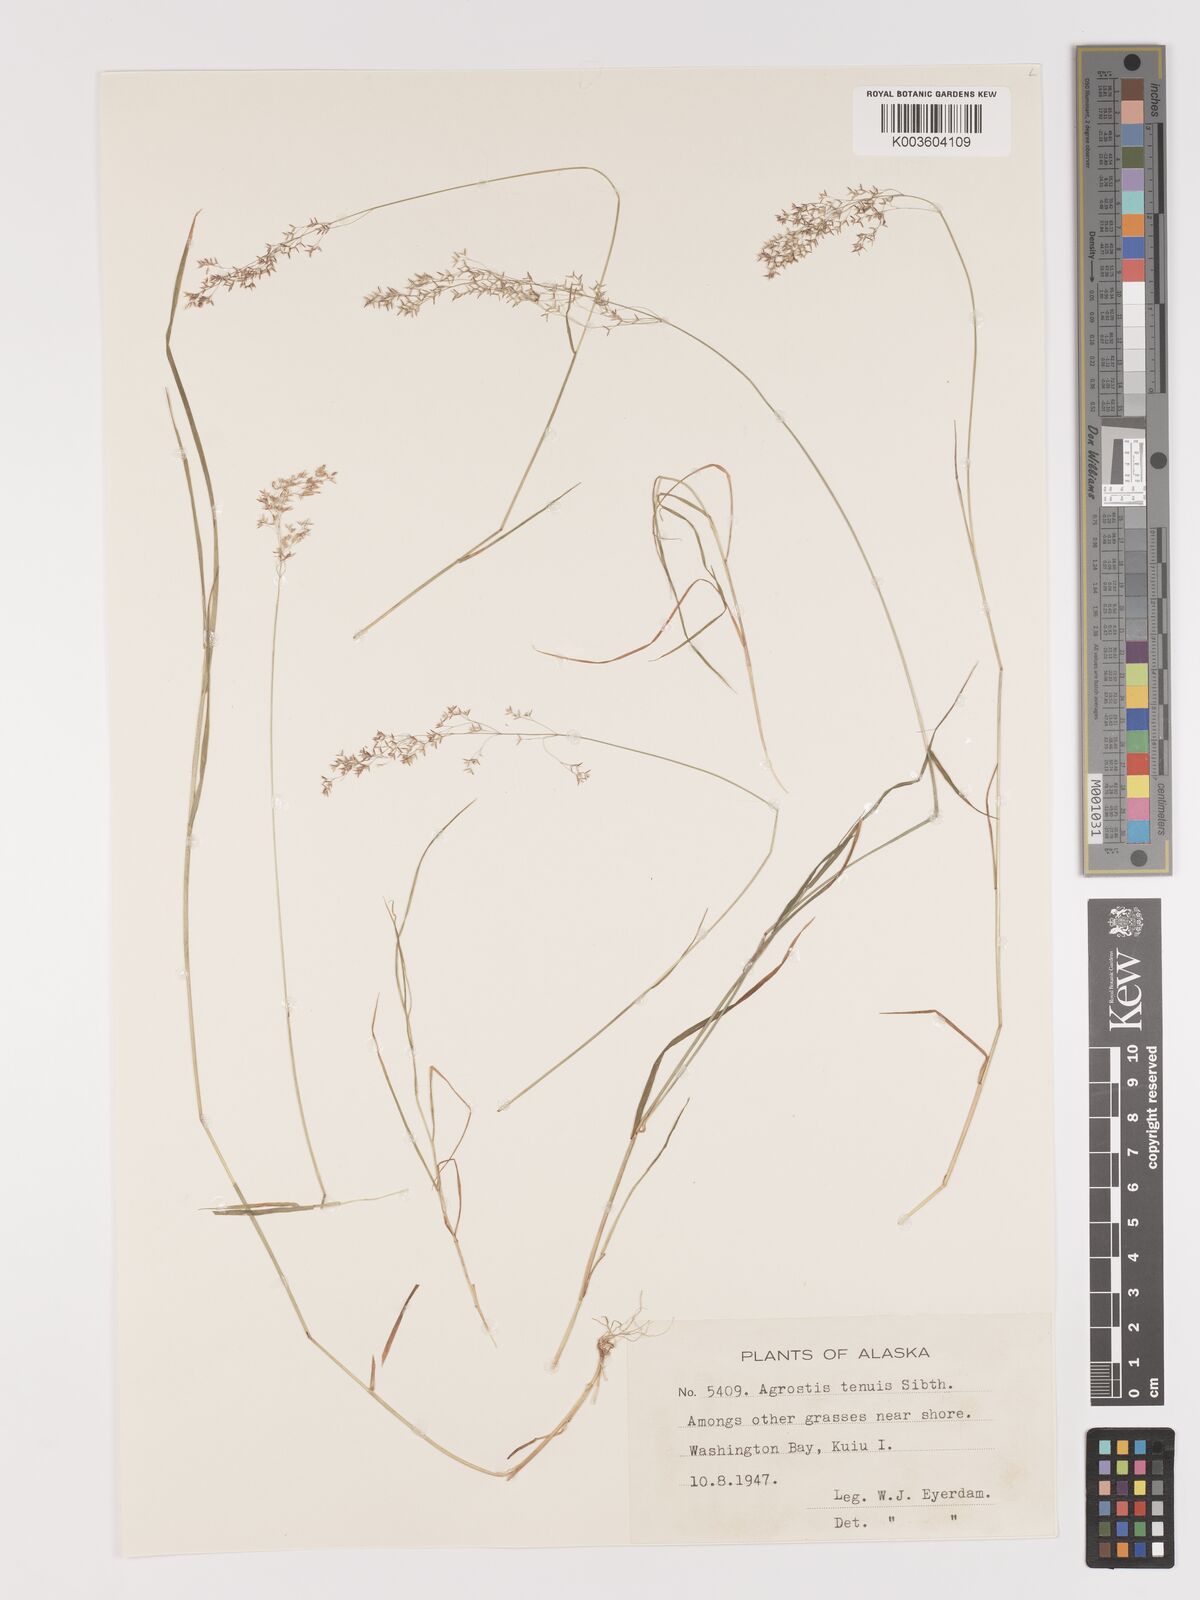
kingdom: Plantae
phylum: Tracheophyta
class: Liliopsida
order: Poales
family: Poaceae
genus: Agrostis
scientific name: Agrostis capillaris
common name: Colonial bentgrass
